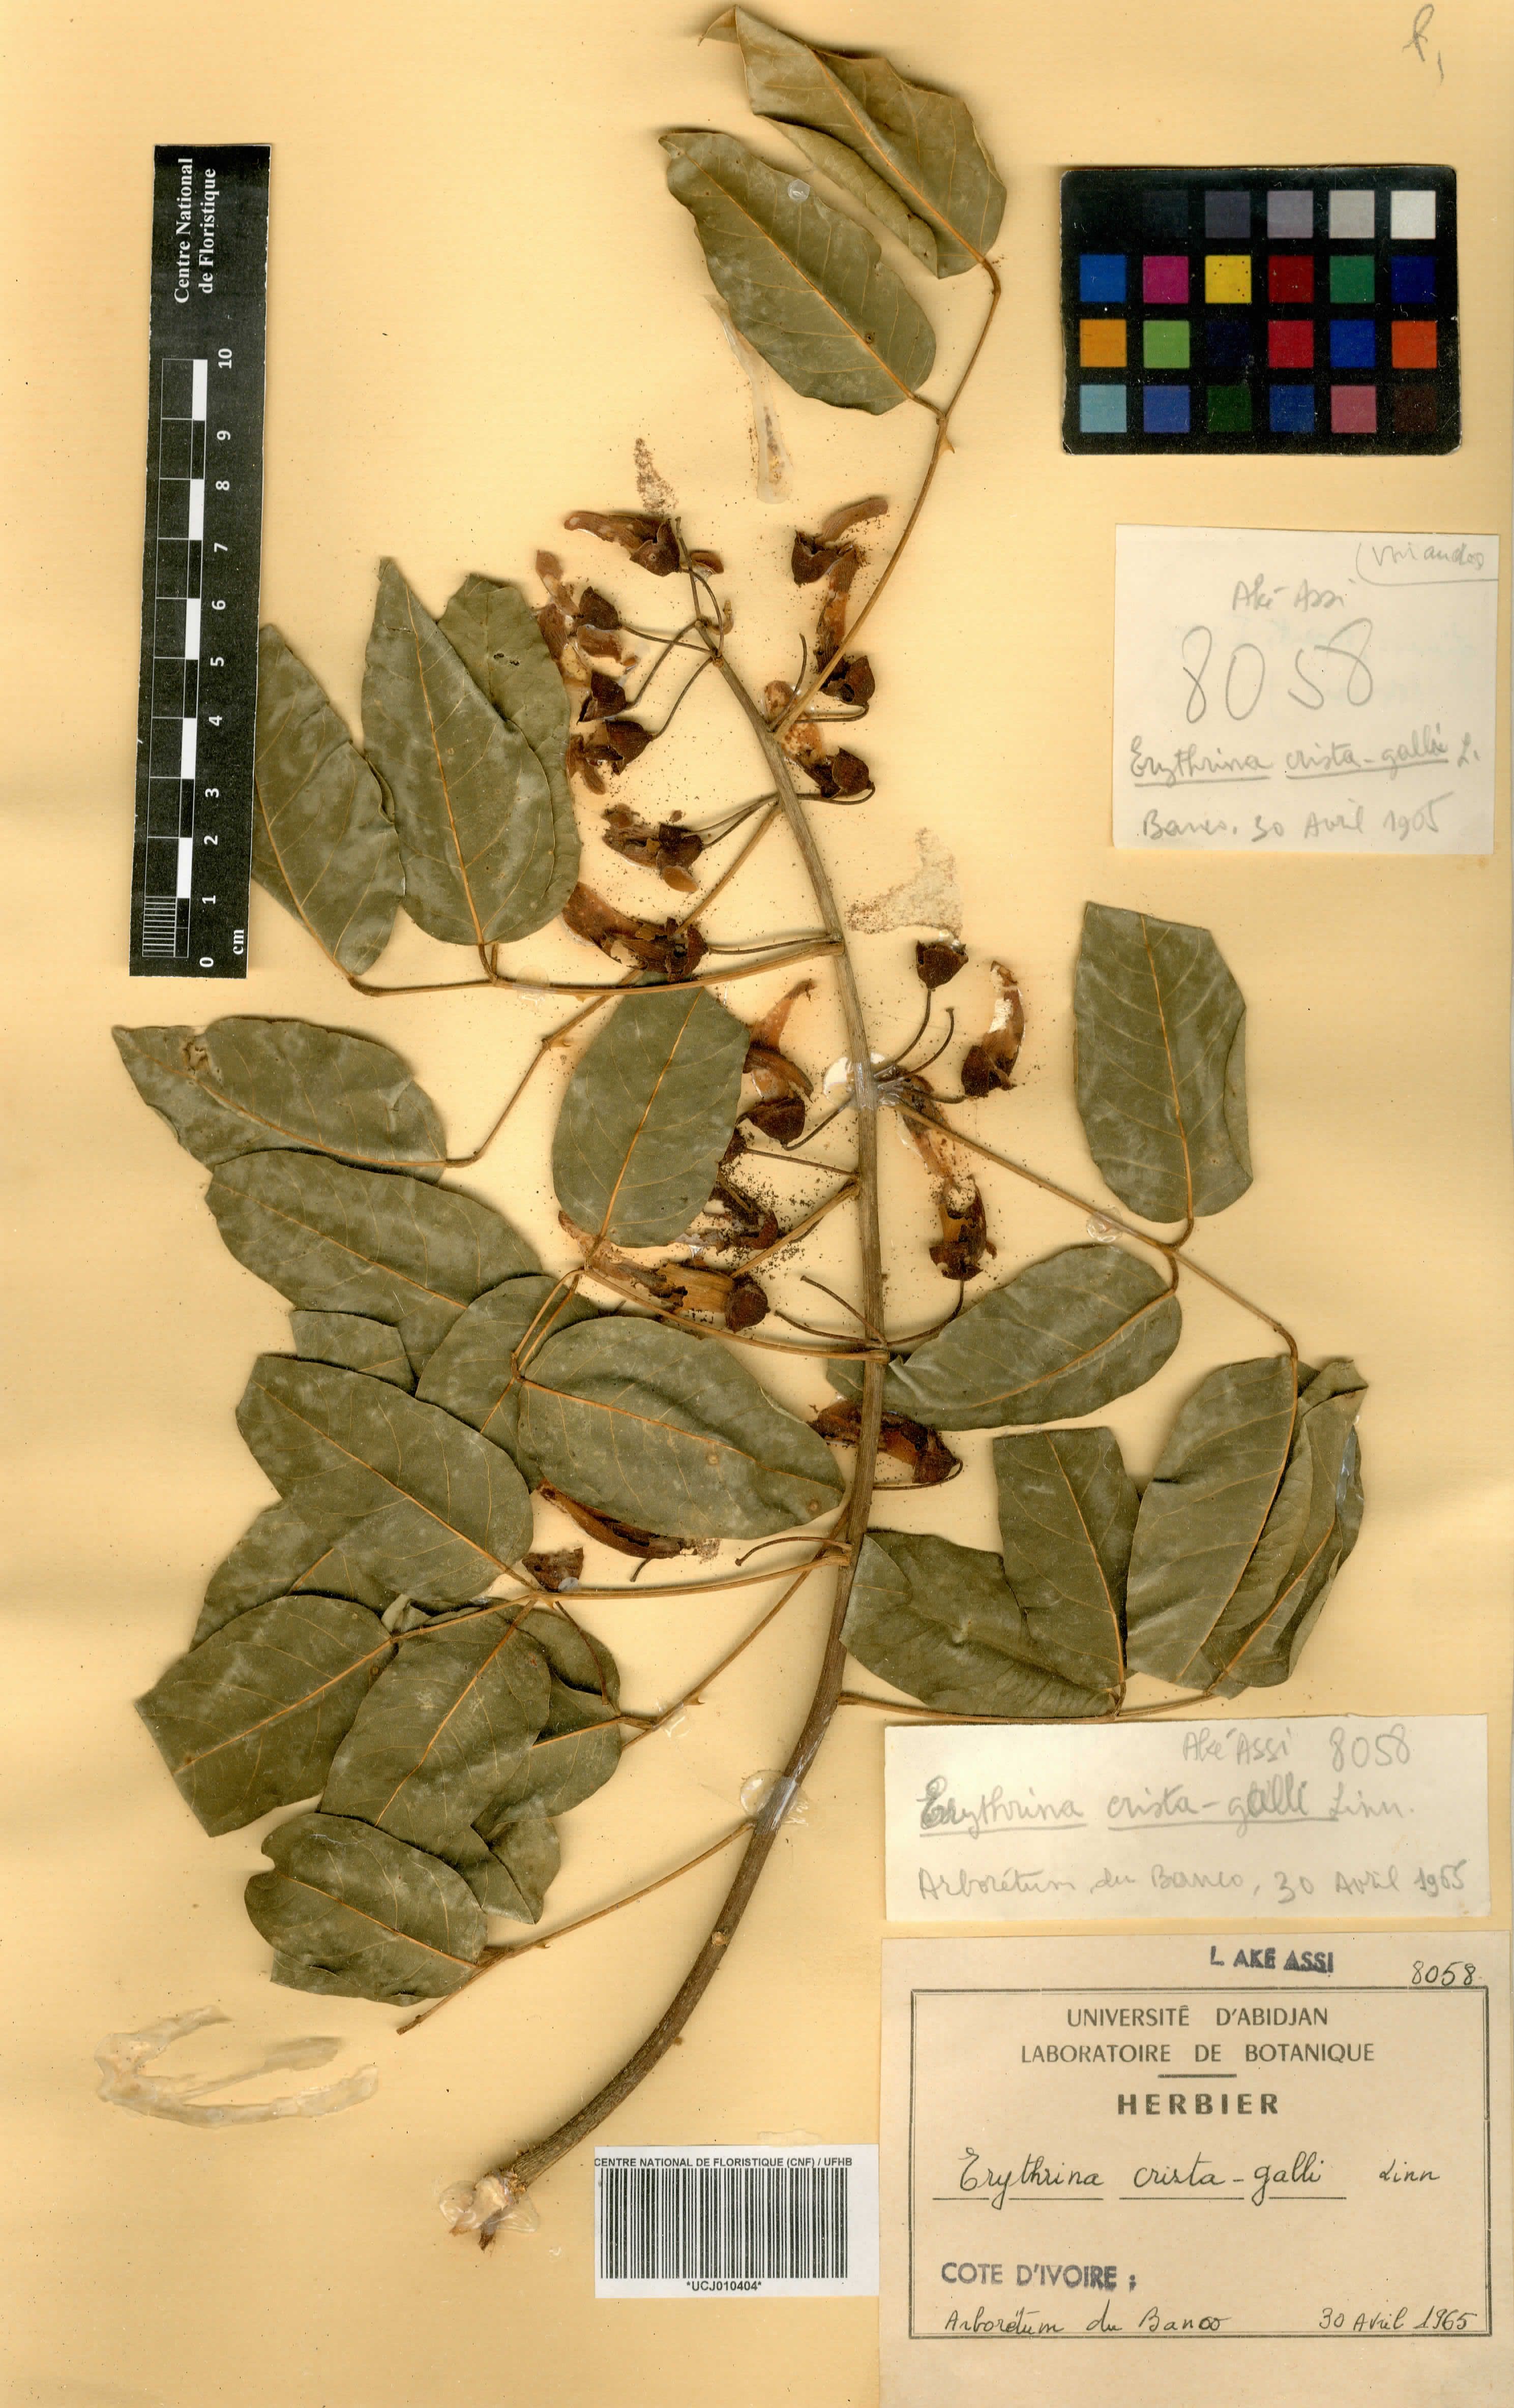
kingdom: Plantae
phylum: Tracheophyta
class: Magnoliopsida
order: Fabales
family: Fabaceae
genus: Erythrina
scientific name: Erythrina crista-galli
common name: Cockspur coral tree
